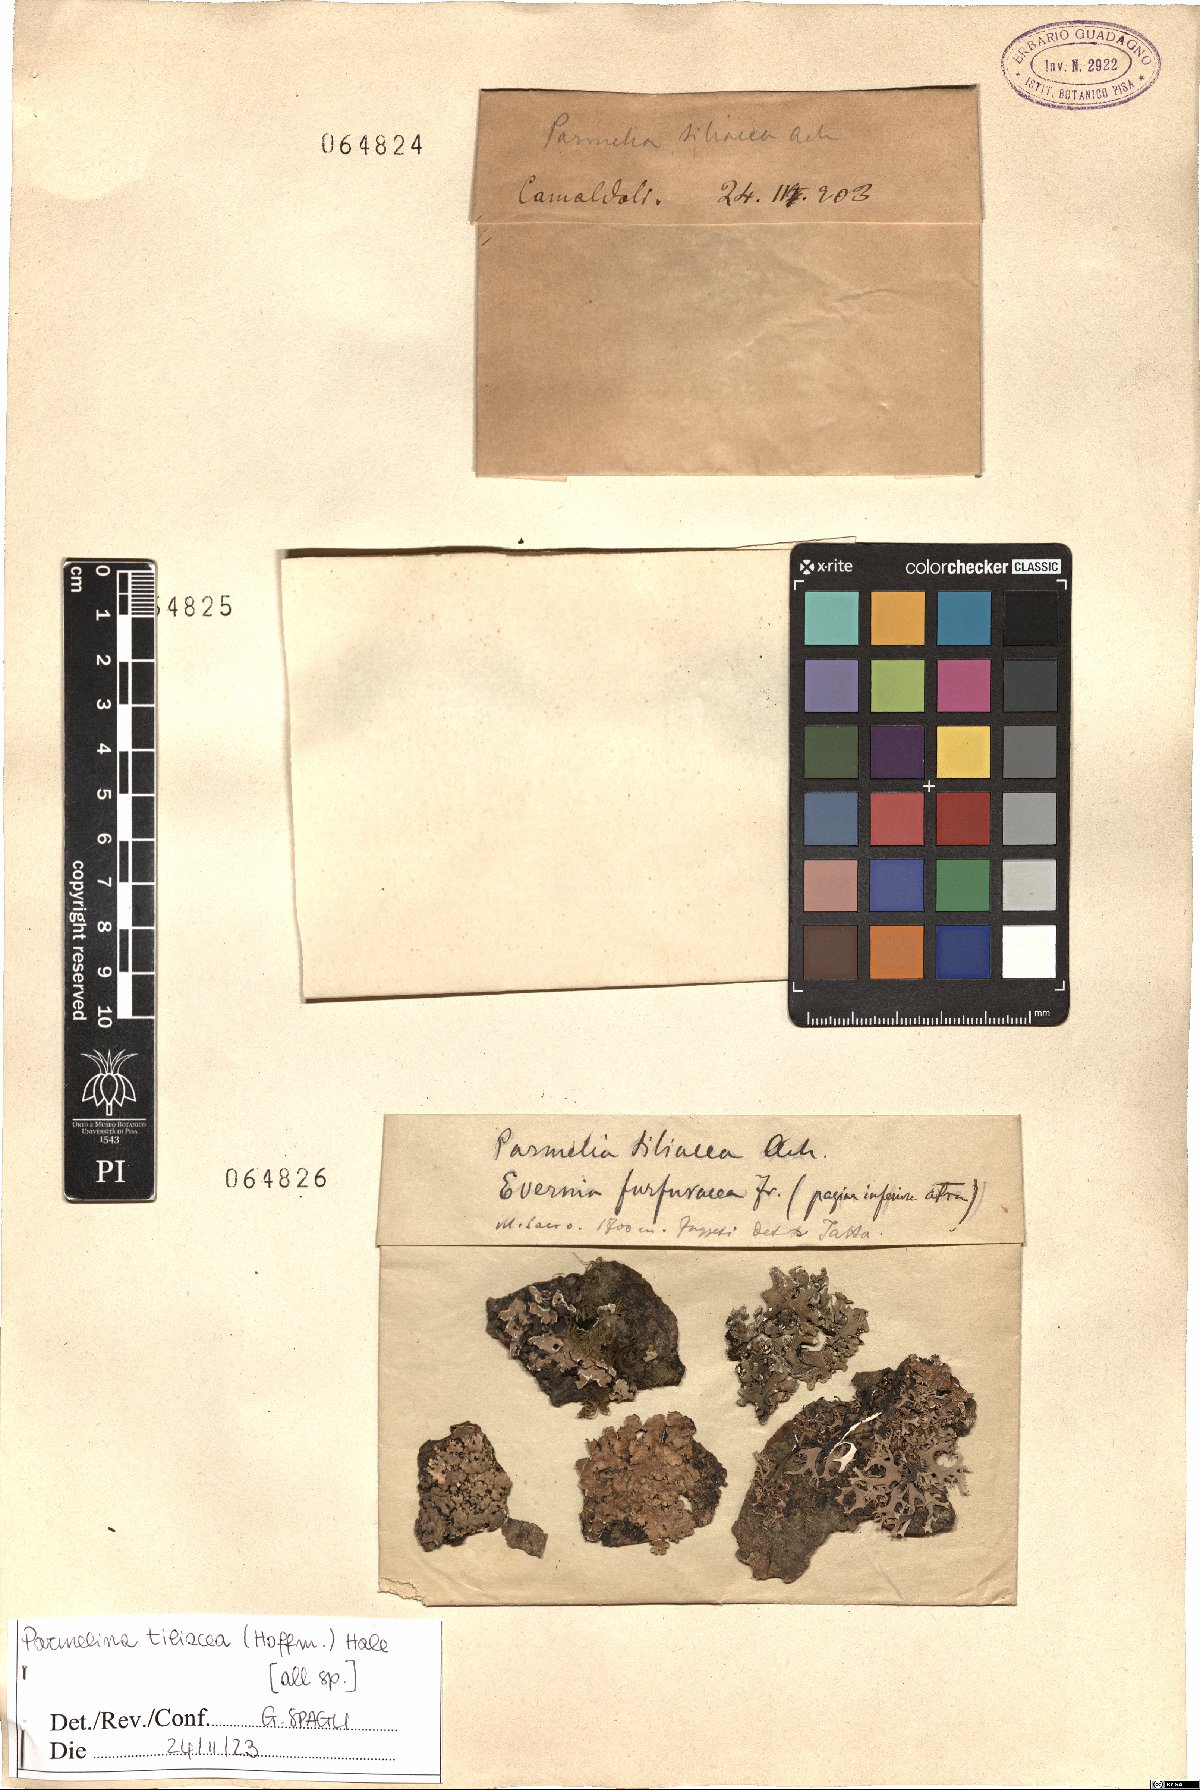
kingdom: Fungi
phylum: Ascomycota
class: Lecanoromycetes
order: Lecanorales
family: Parmeliaceae
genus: Parmelina
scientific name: Parmelina tiliacea
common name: Linden shield lichen
